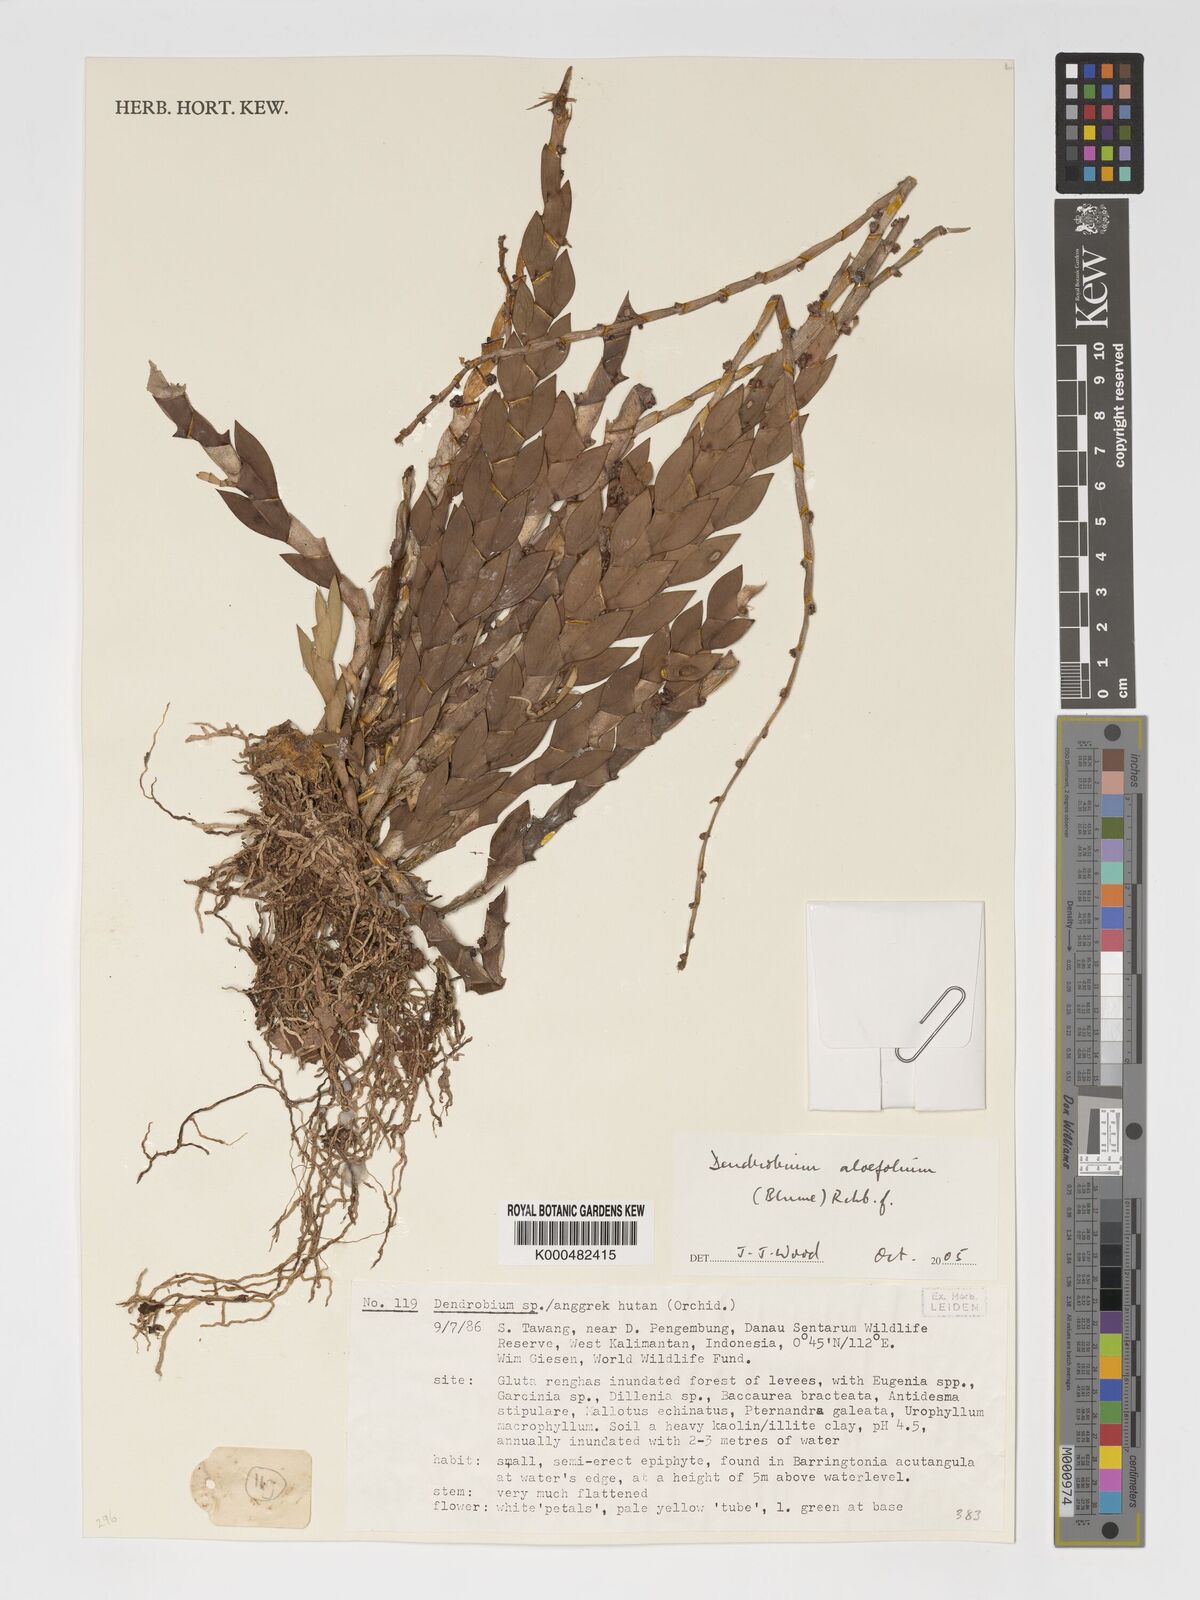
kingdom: Plantae
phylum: Tracheophyta
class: Liliopsida
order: Asparagales
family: Orchidaceae
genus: Dendrobium
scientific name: Dendrobium aloifolium
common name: Aloe-like dendrobium
